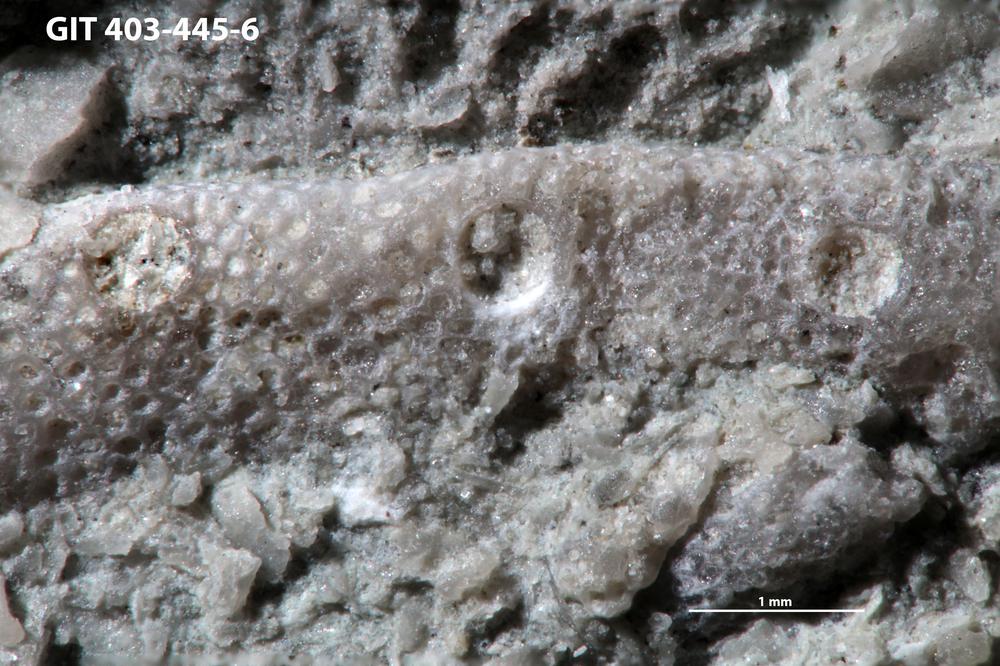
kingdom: Animalia
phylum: Cnidaria
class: Anthozoa
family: Auloporidae
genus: Aulopora
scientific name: Aulopora amica
